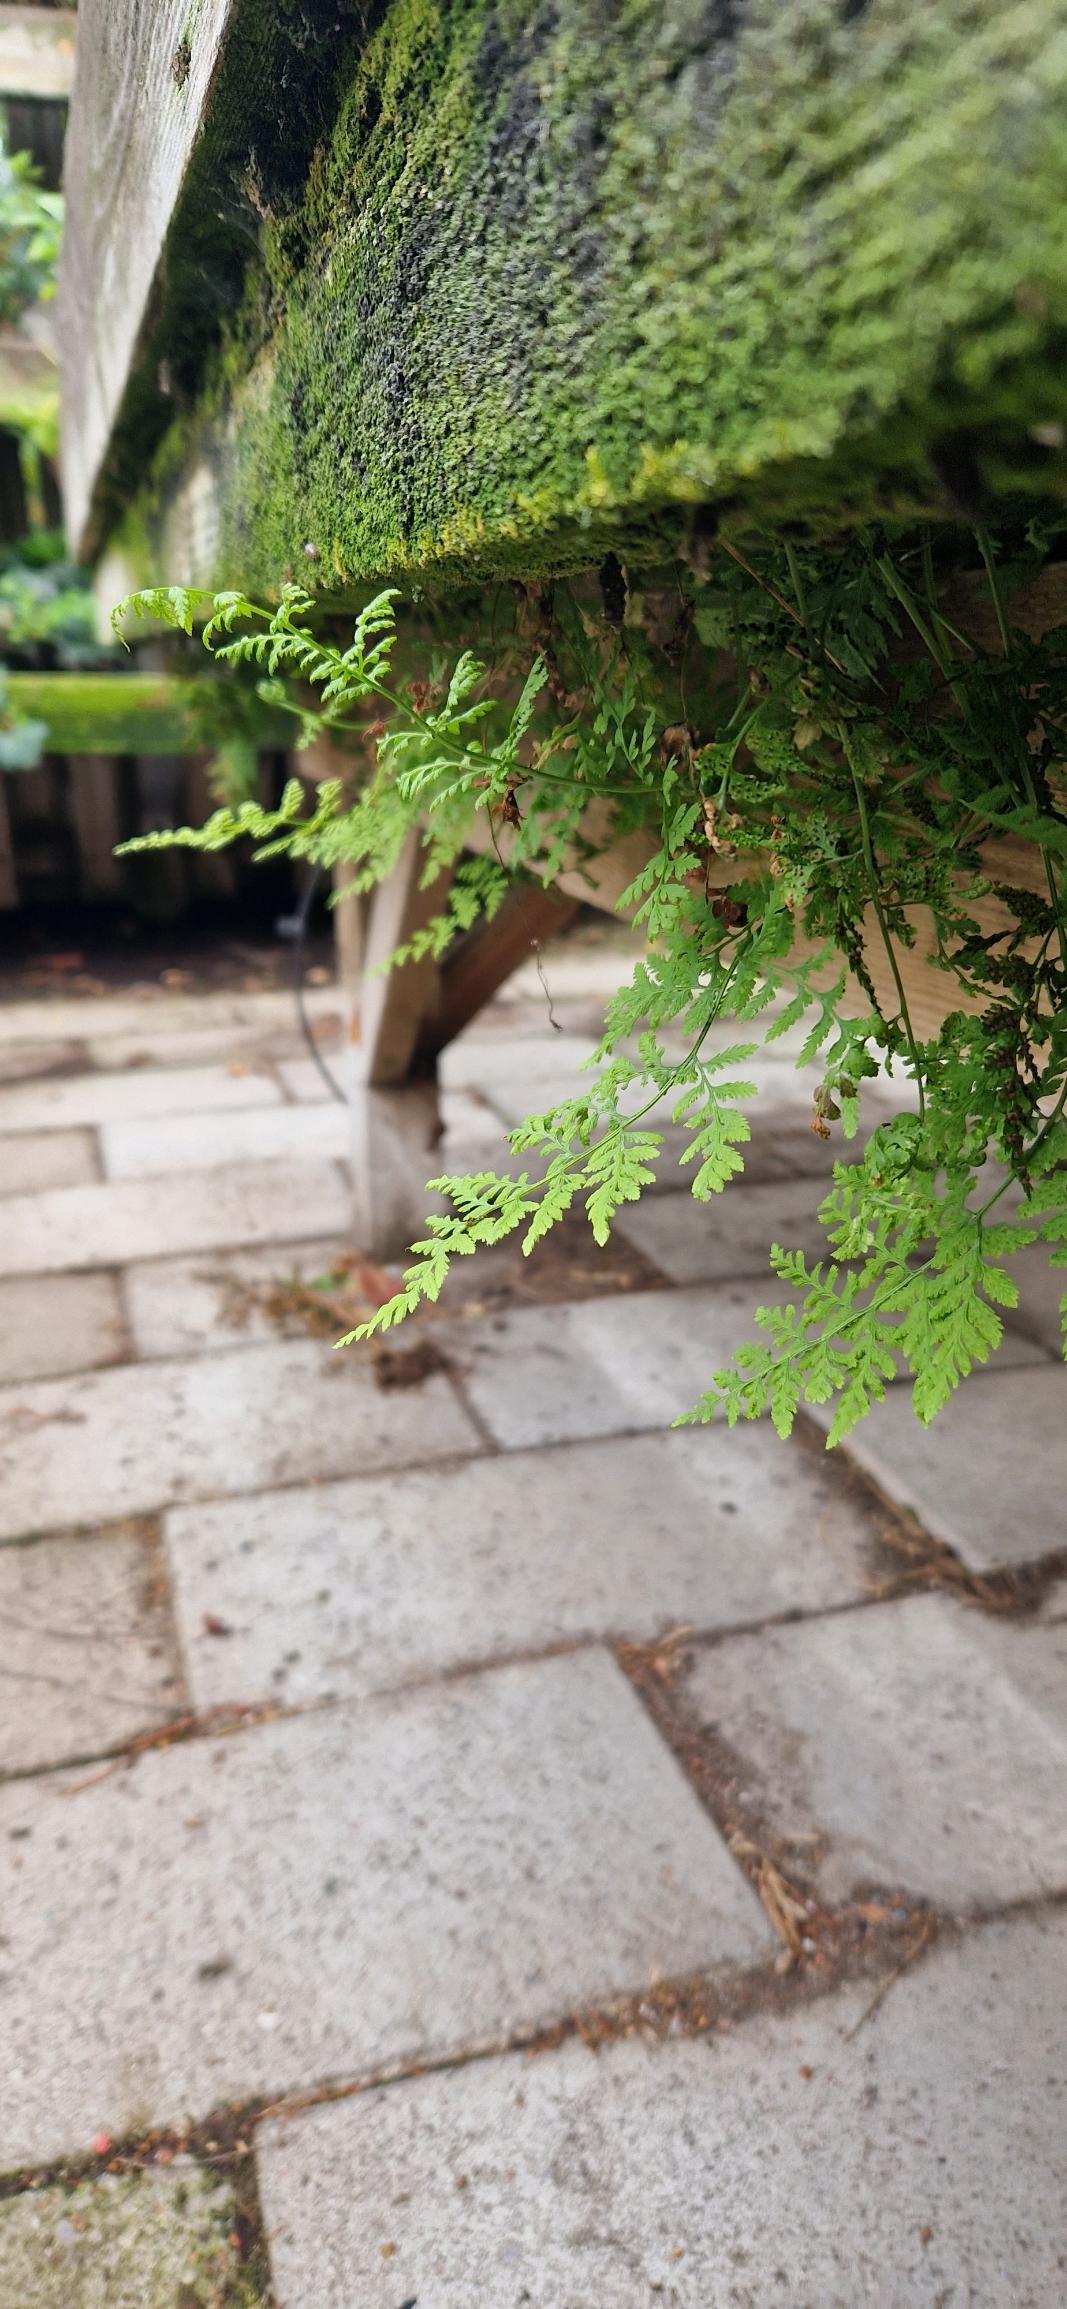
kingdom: Plantae
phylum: Tracheophyta
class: Polypodiopsida
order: Polypodiales
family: Cystopteridaceae
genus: Cystopteris
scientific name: Cystopteris fragilis
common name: Bægerbregne
